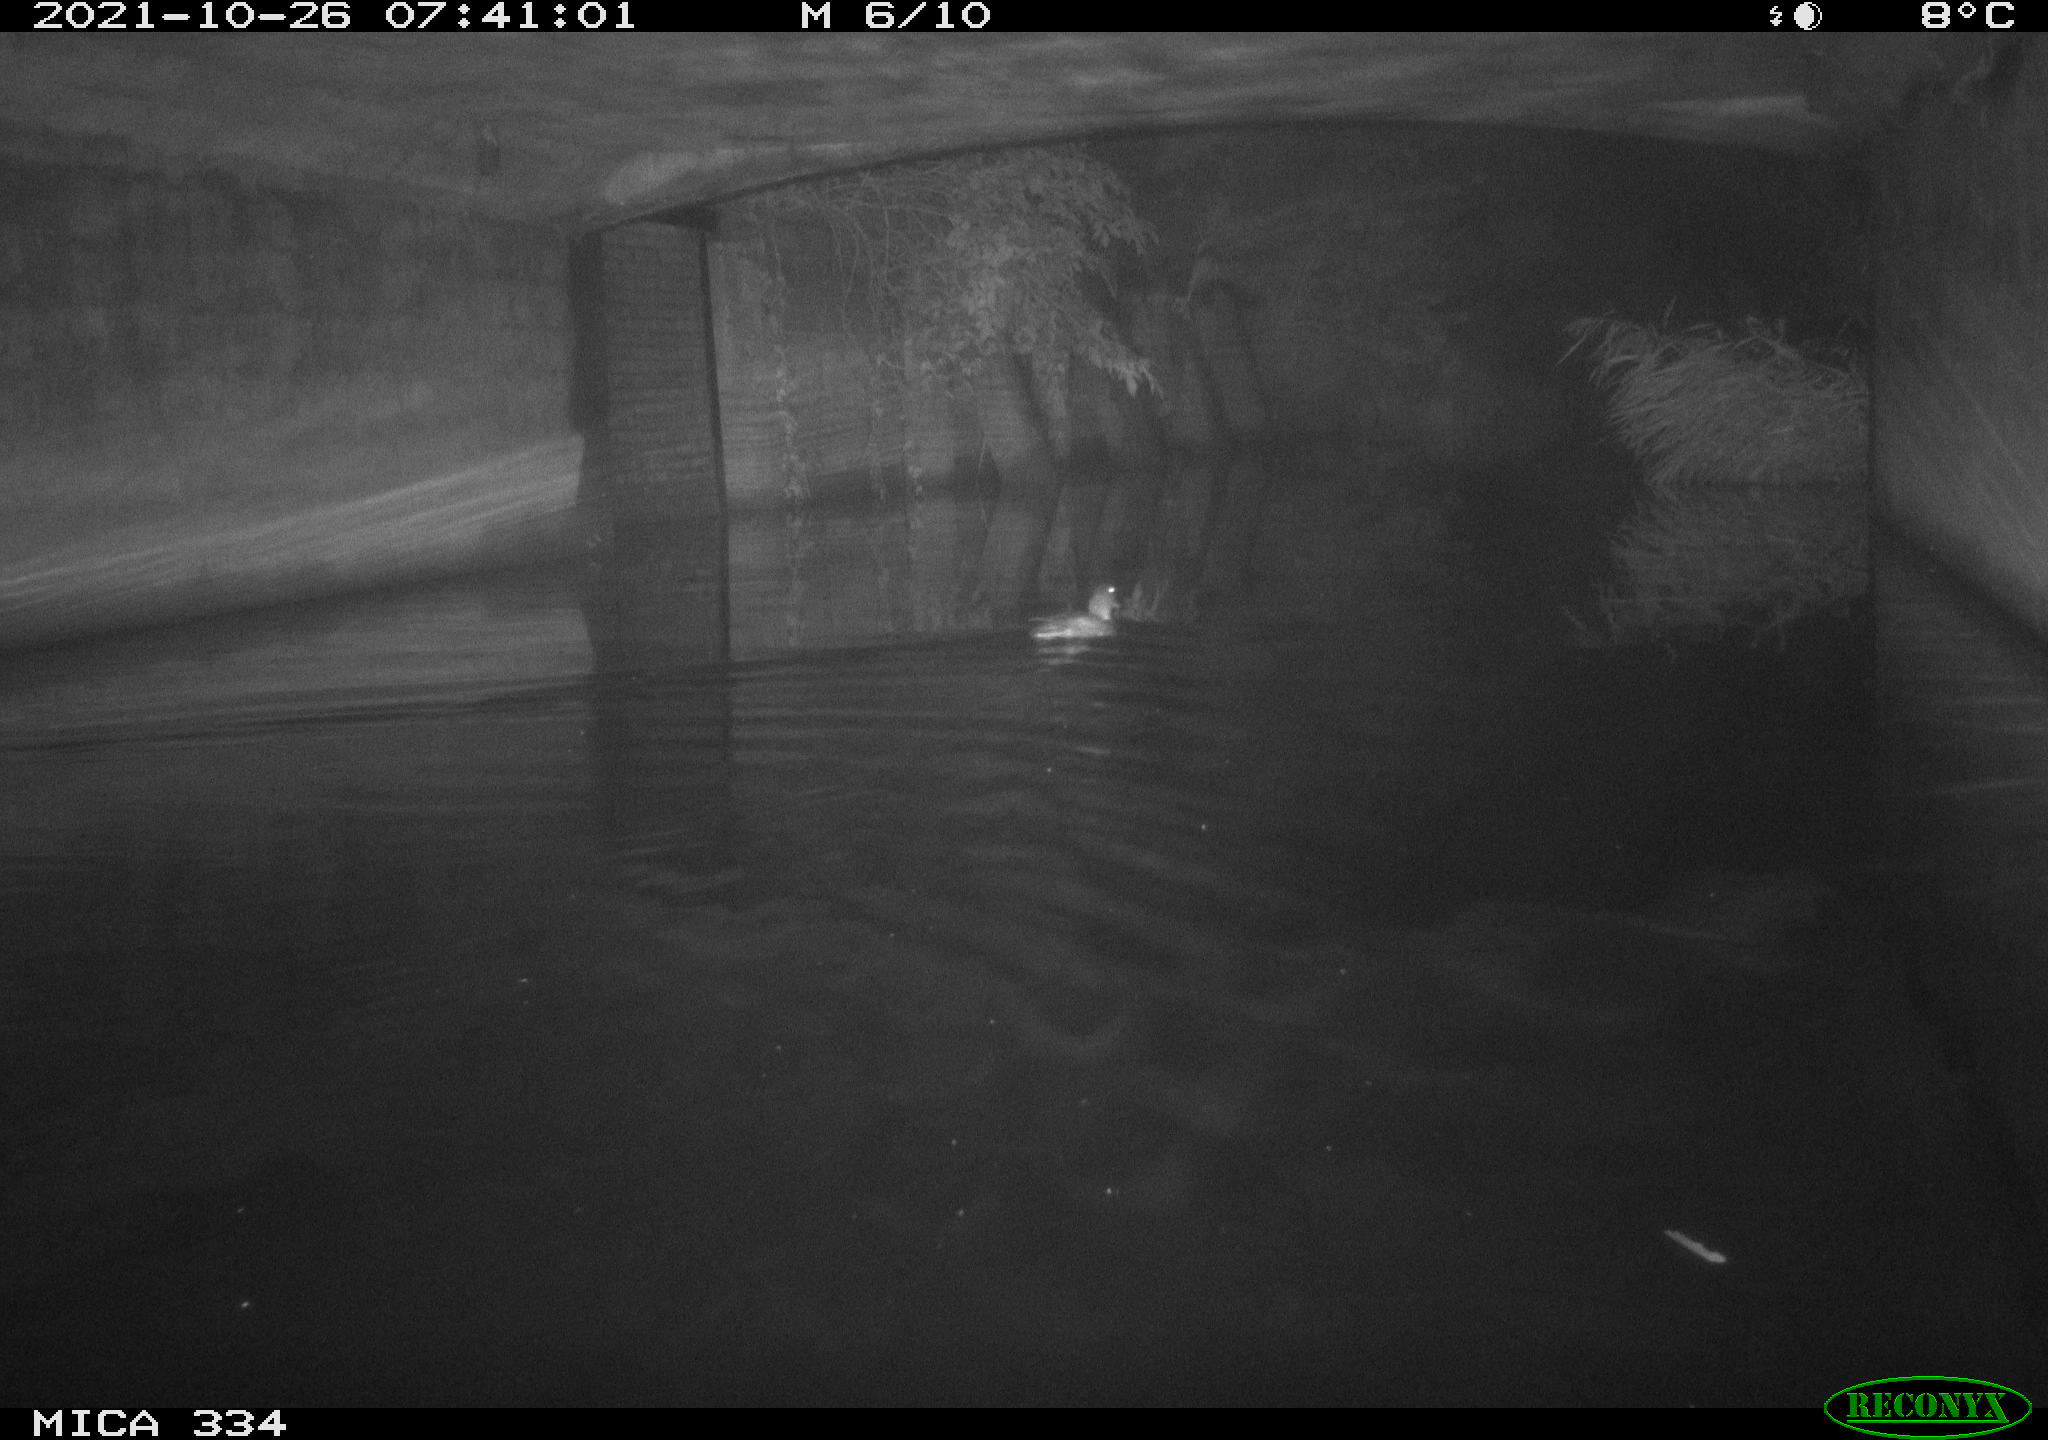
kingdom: Animalia
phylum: Chordata
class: Aves
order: Anseriformes
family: Anatidae
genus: Anas
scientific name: Anas platyrhynchos
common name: Mallard
